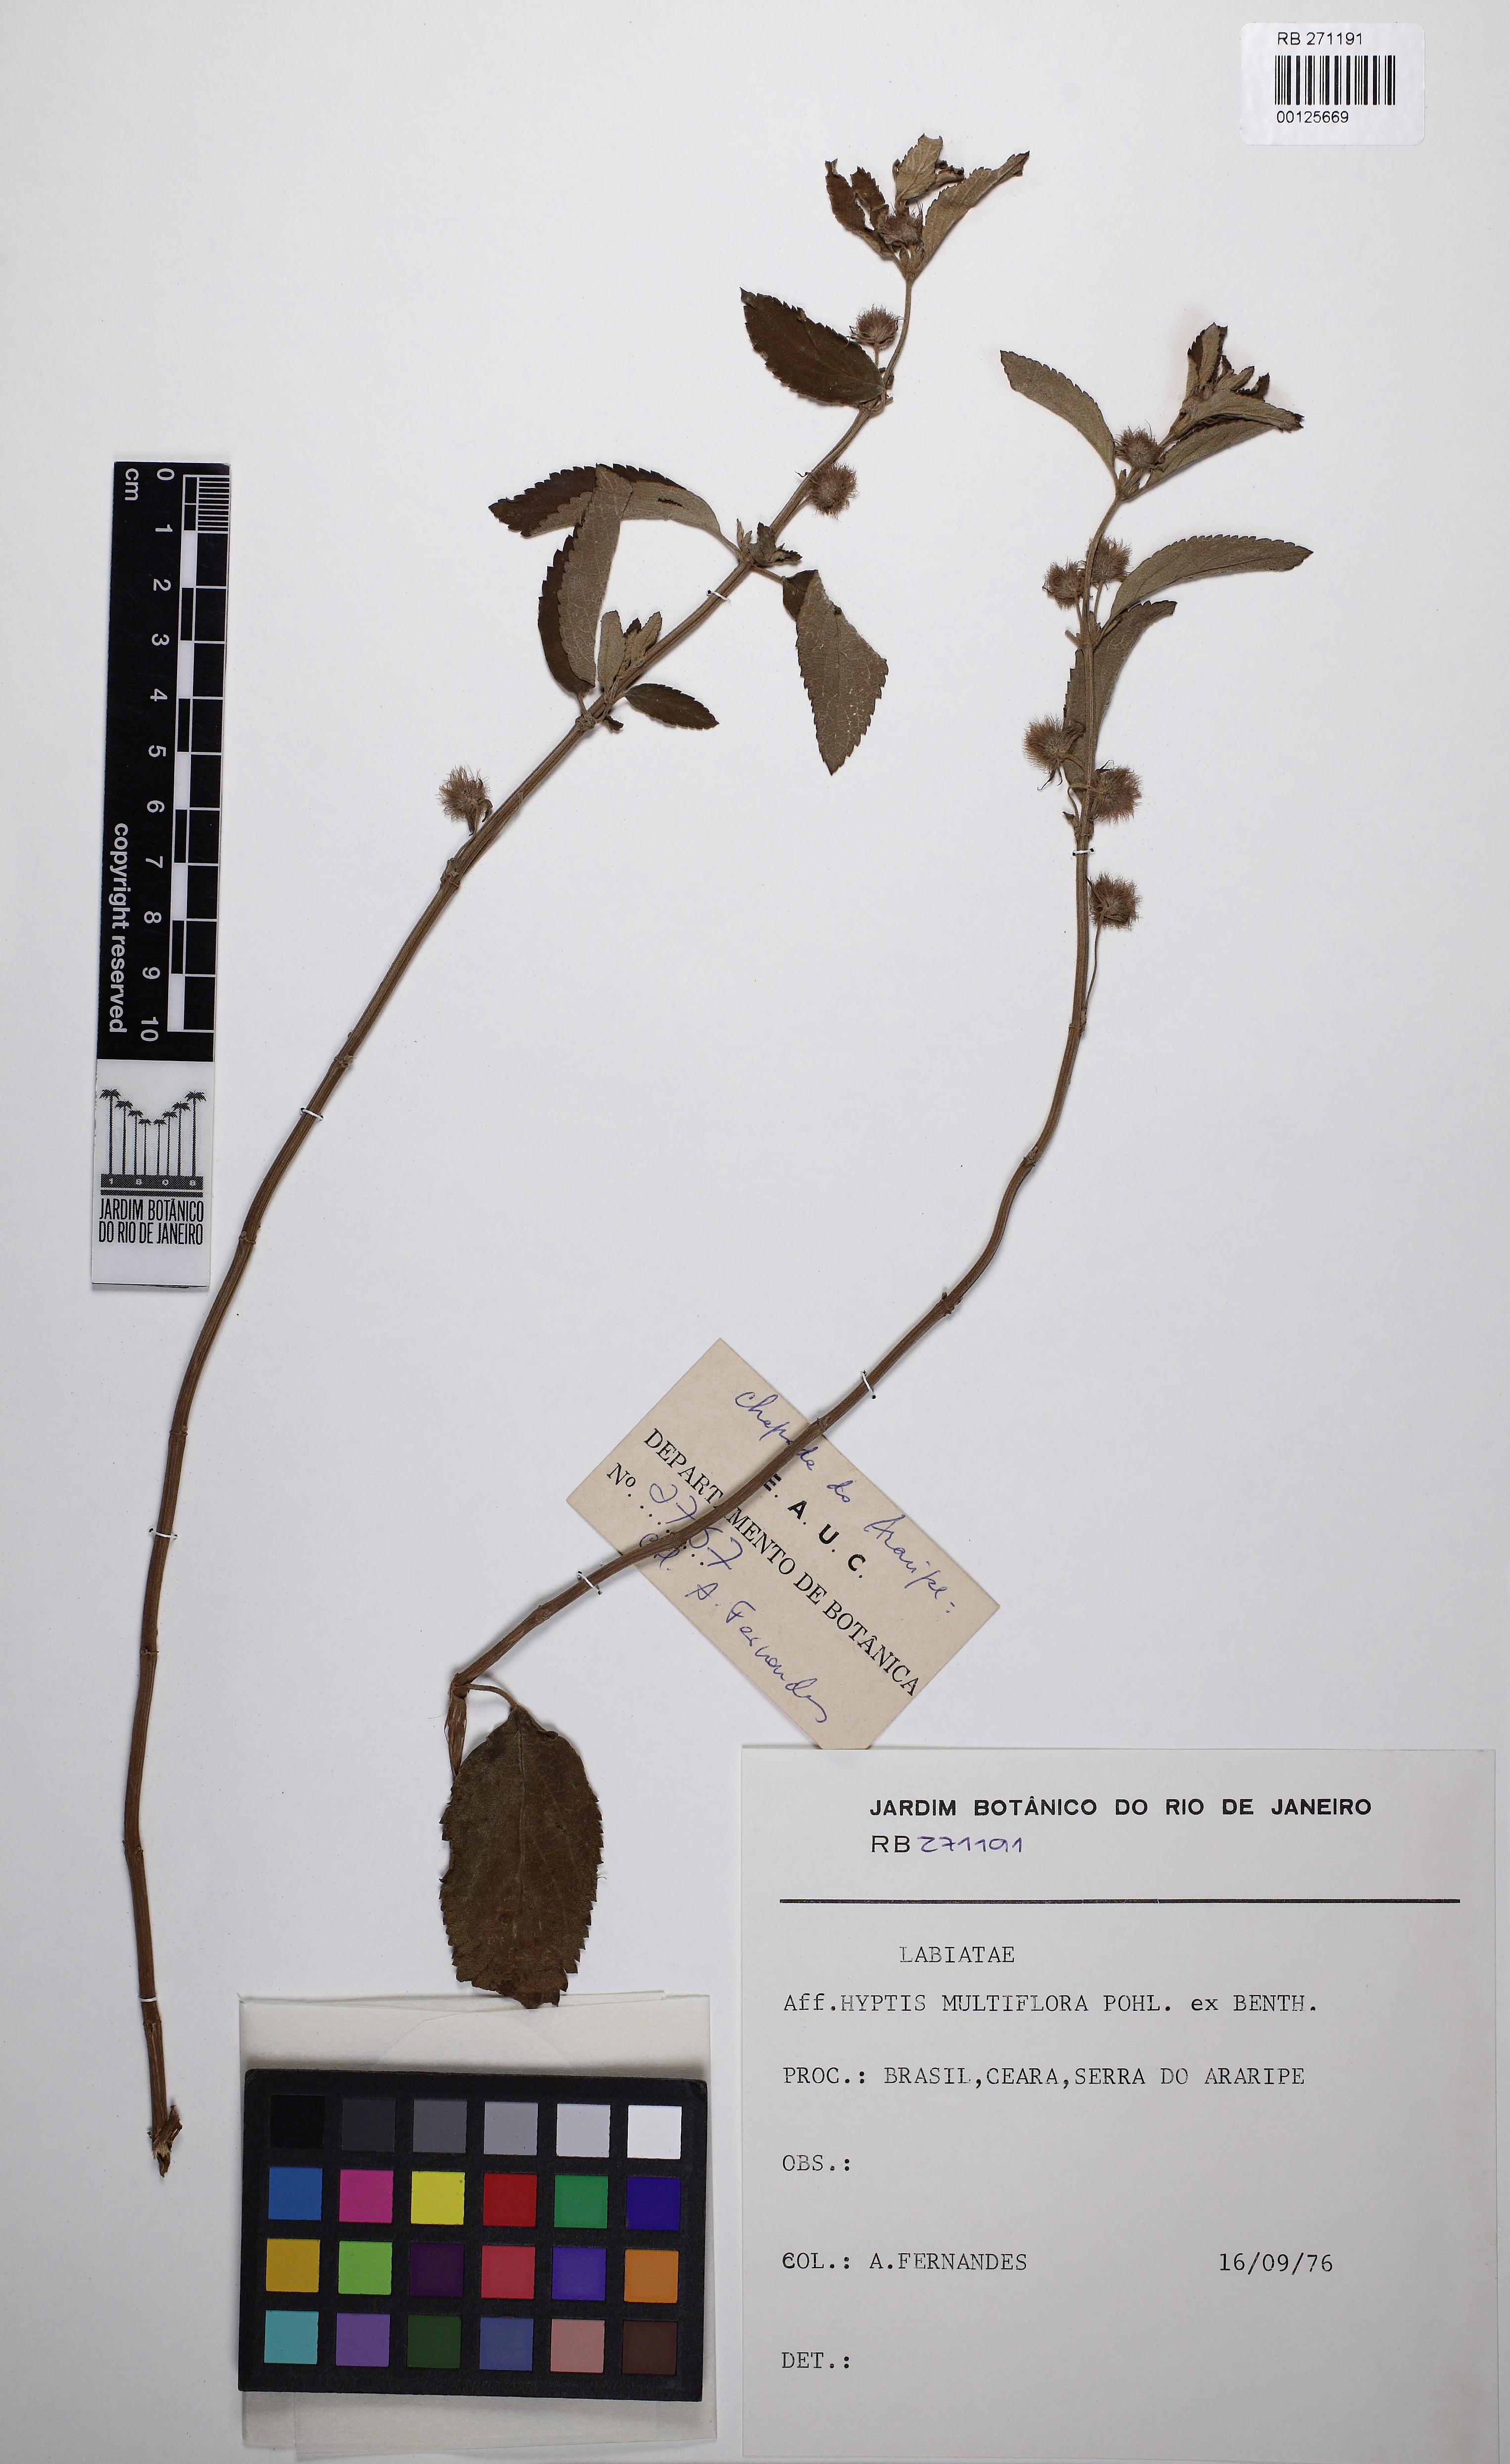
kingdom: Plantae
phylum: Tracheophyta
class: Magnoliopsida
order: Lamiales
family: Lamiaceae
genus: Medusantha
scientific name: Medusantha multiflora
